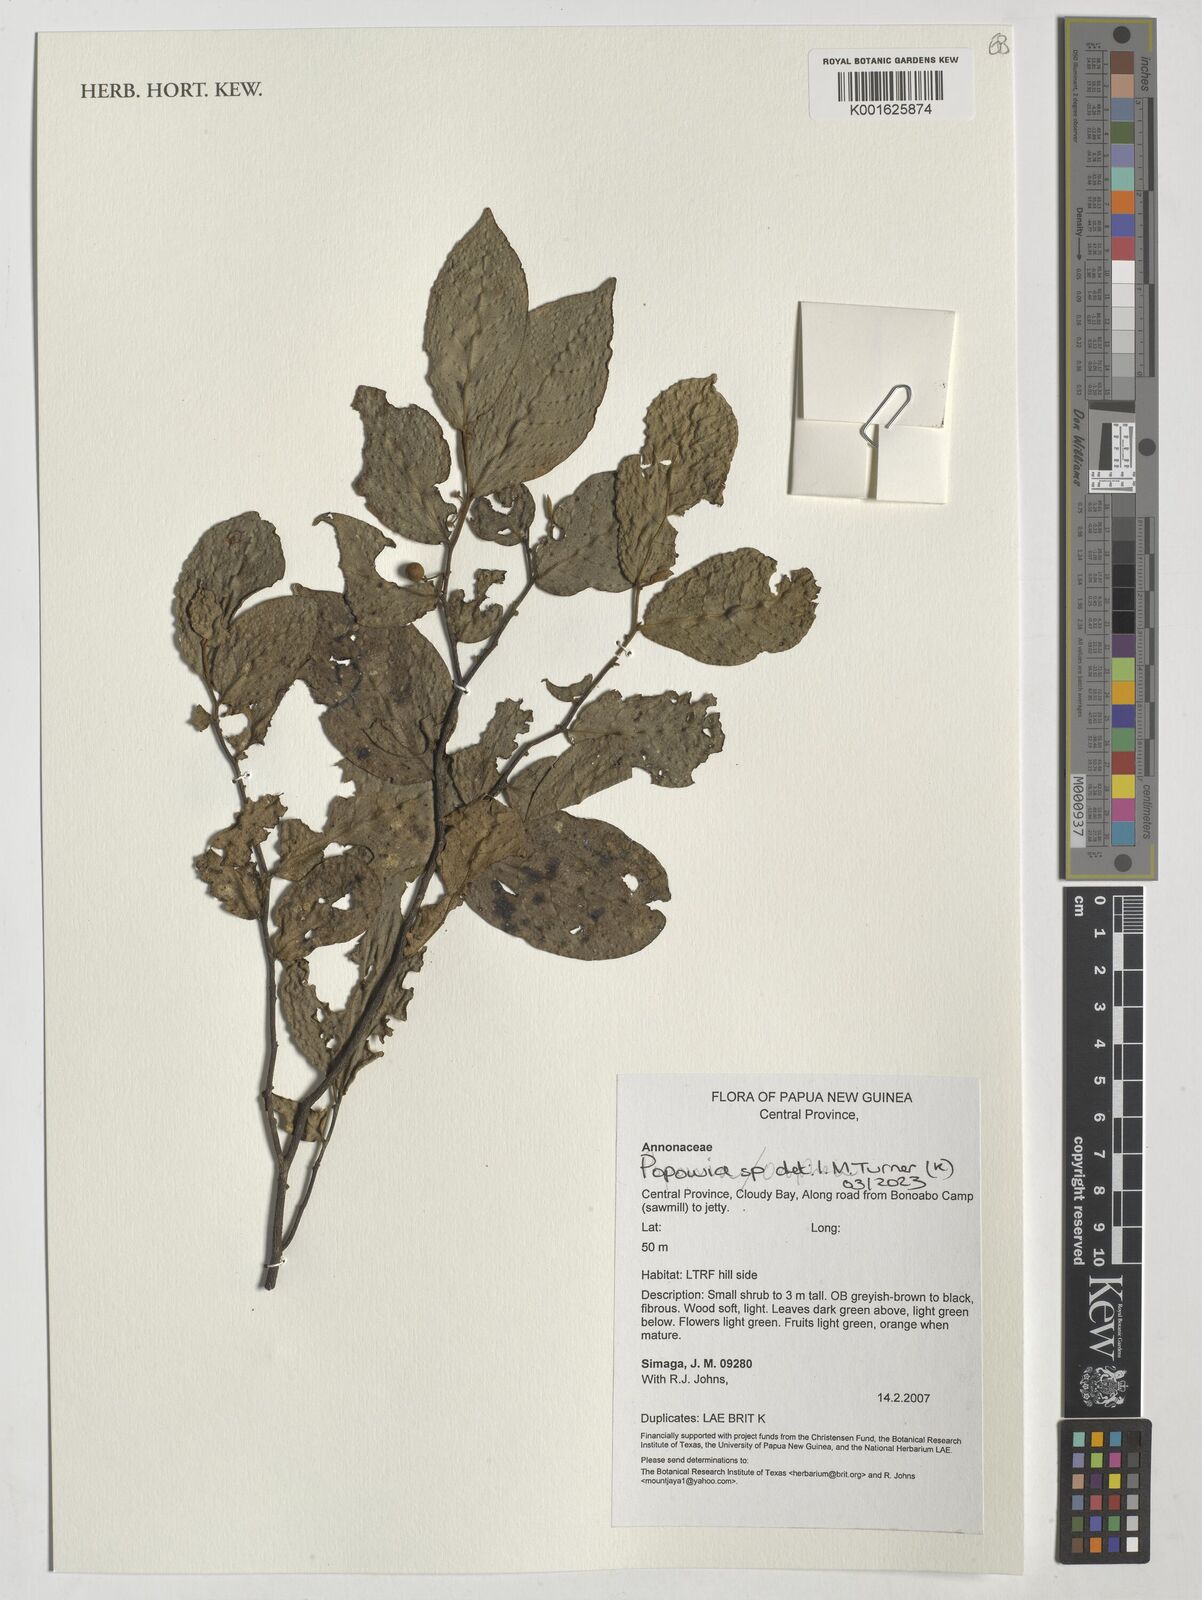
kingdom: Plantae
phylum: Tracheophyta
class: Magnoliopsida
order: Magnoliales
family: Annonaceae
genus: Popowia
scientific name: Popowia
